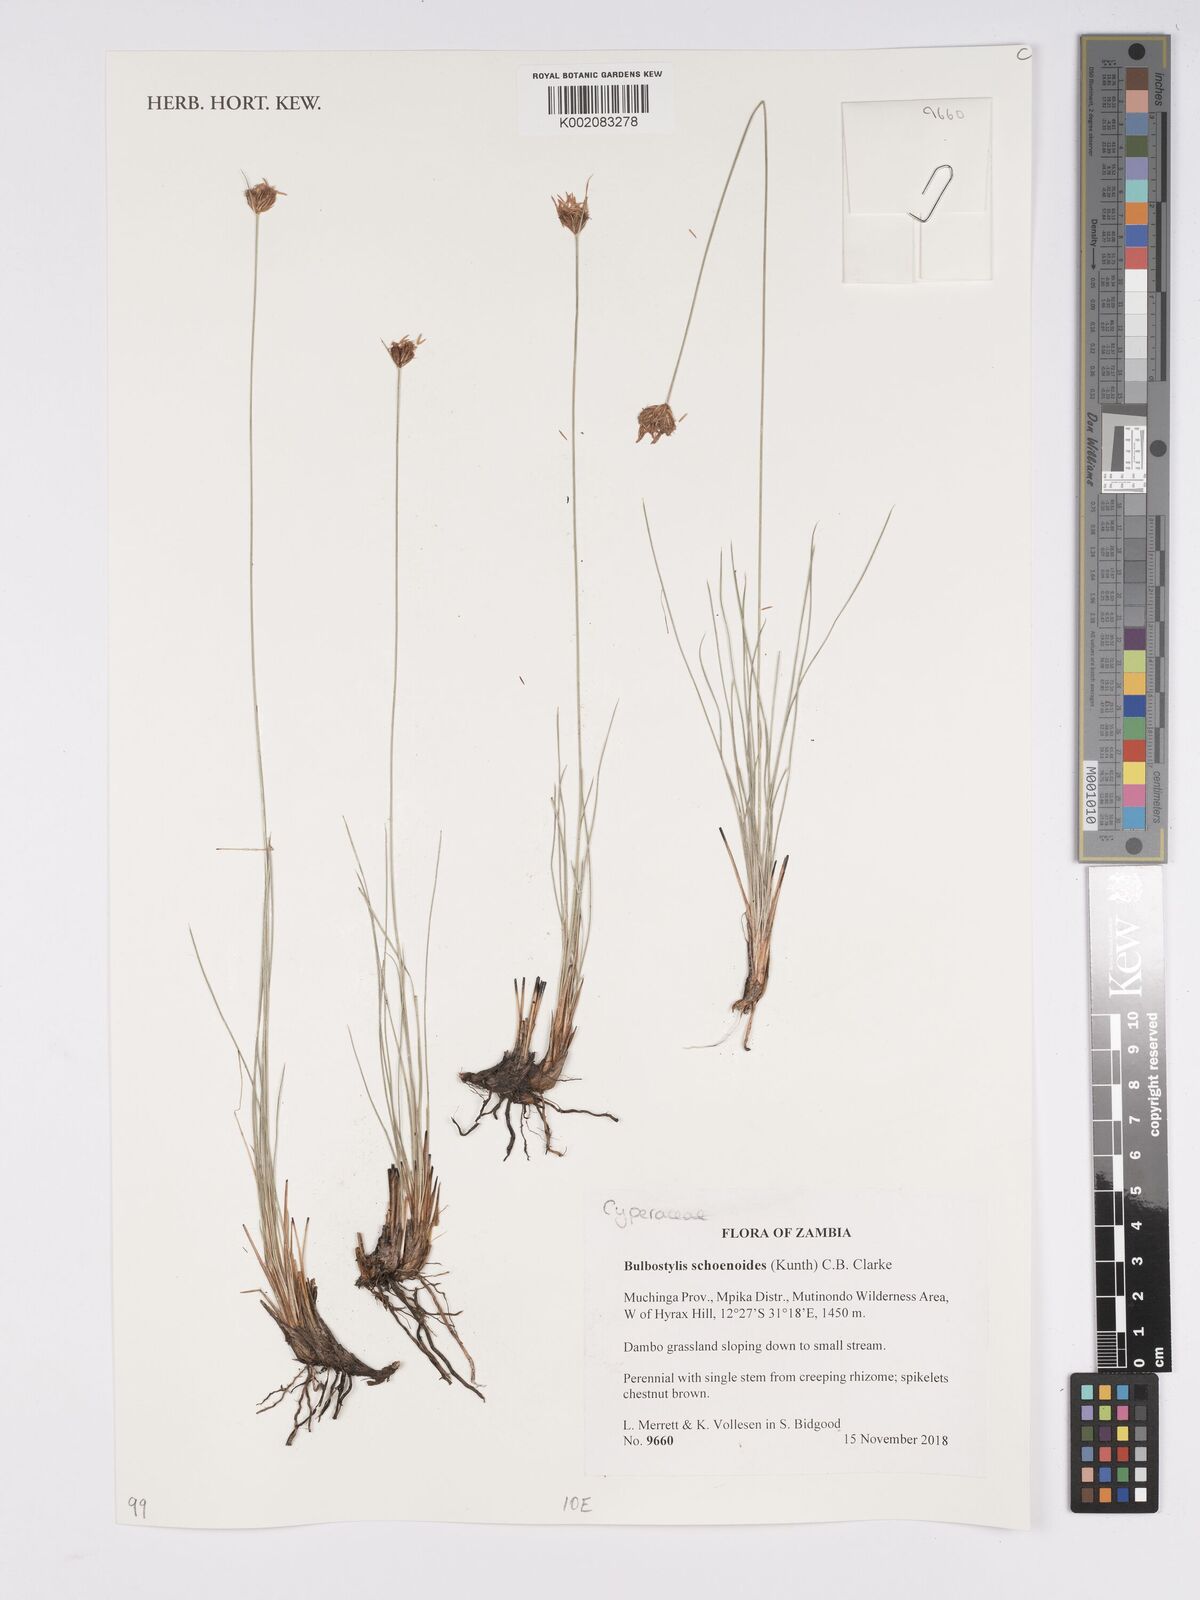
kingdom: Plantae
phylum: Tracheophyta
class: Liliopsida
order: Poales
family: Cyperaceae
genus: Bulbostylis
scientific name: Bulbostylis schoenoides
